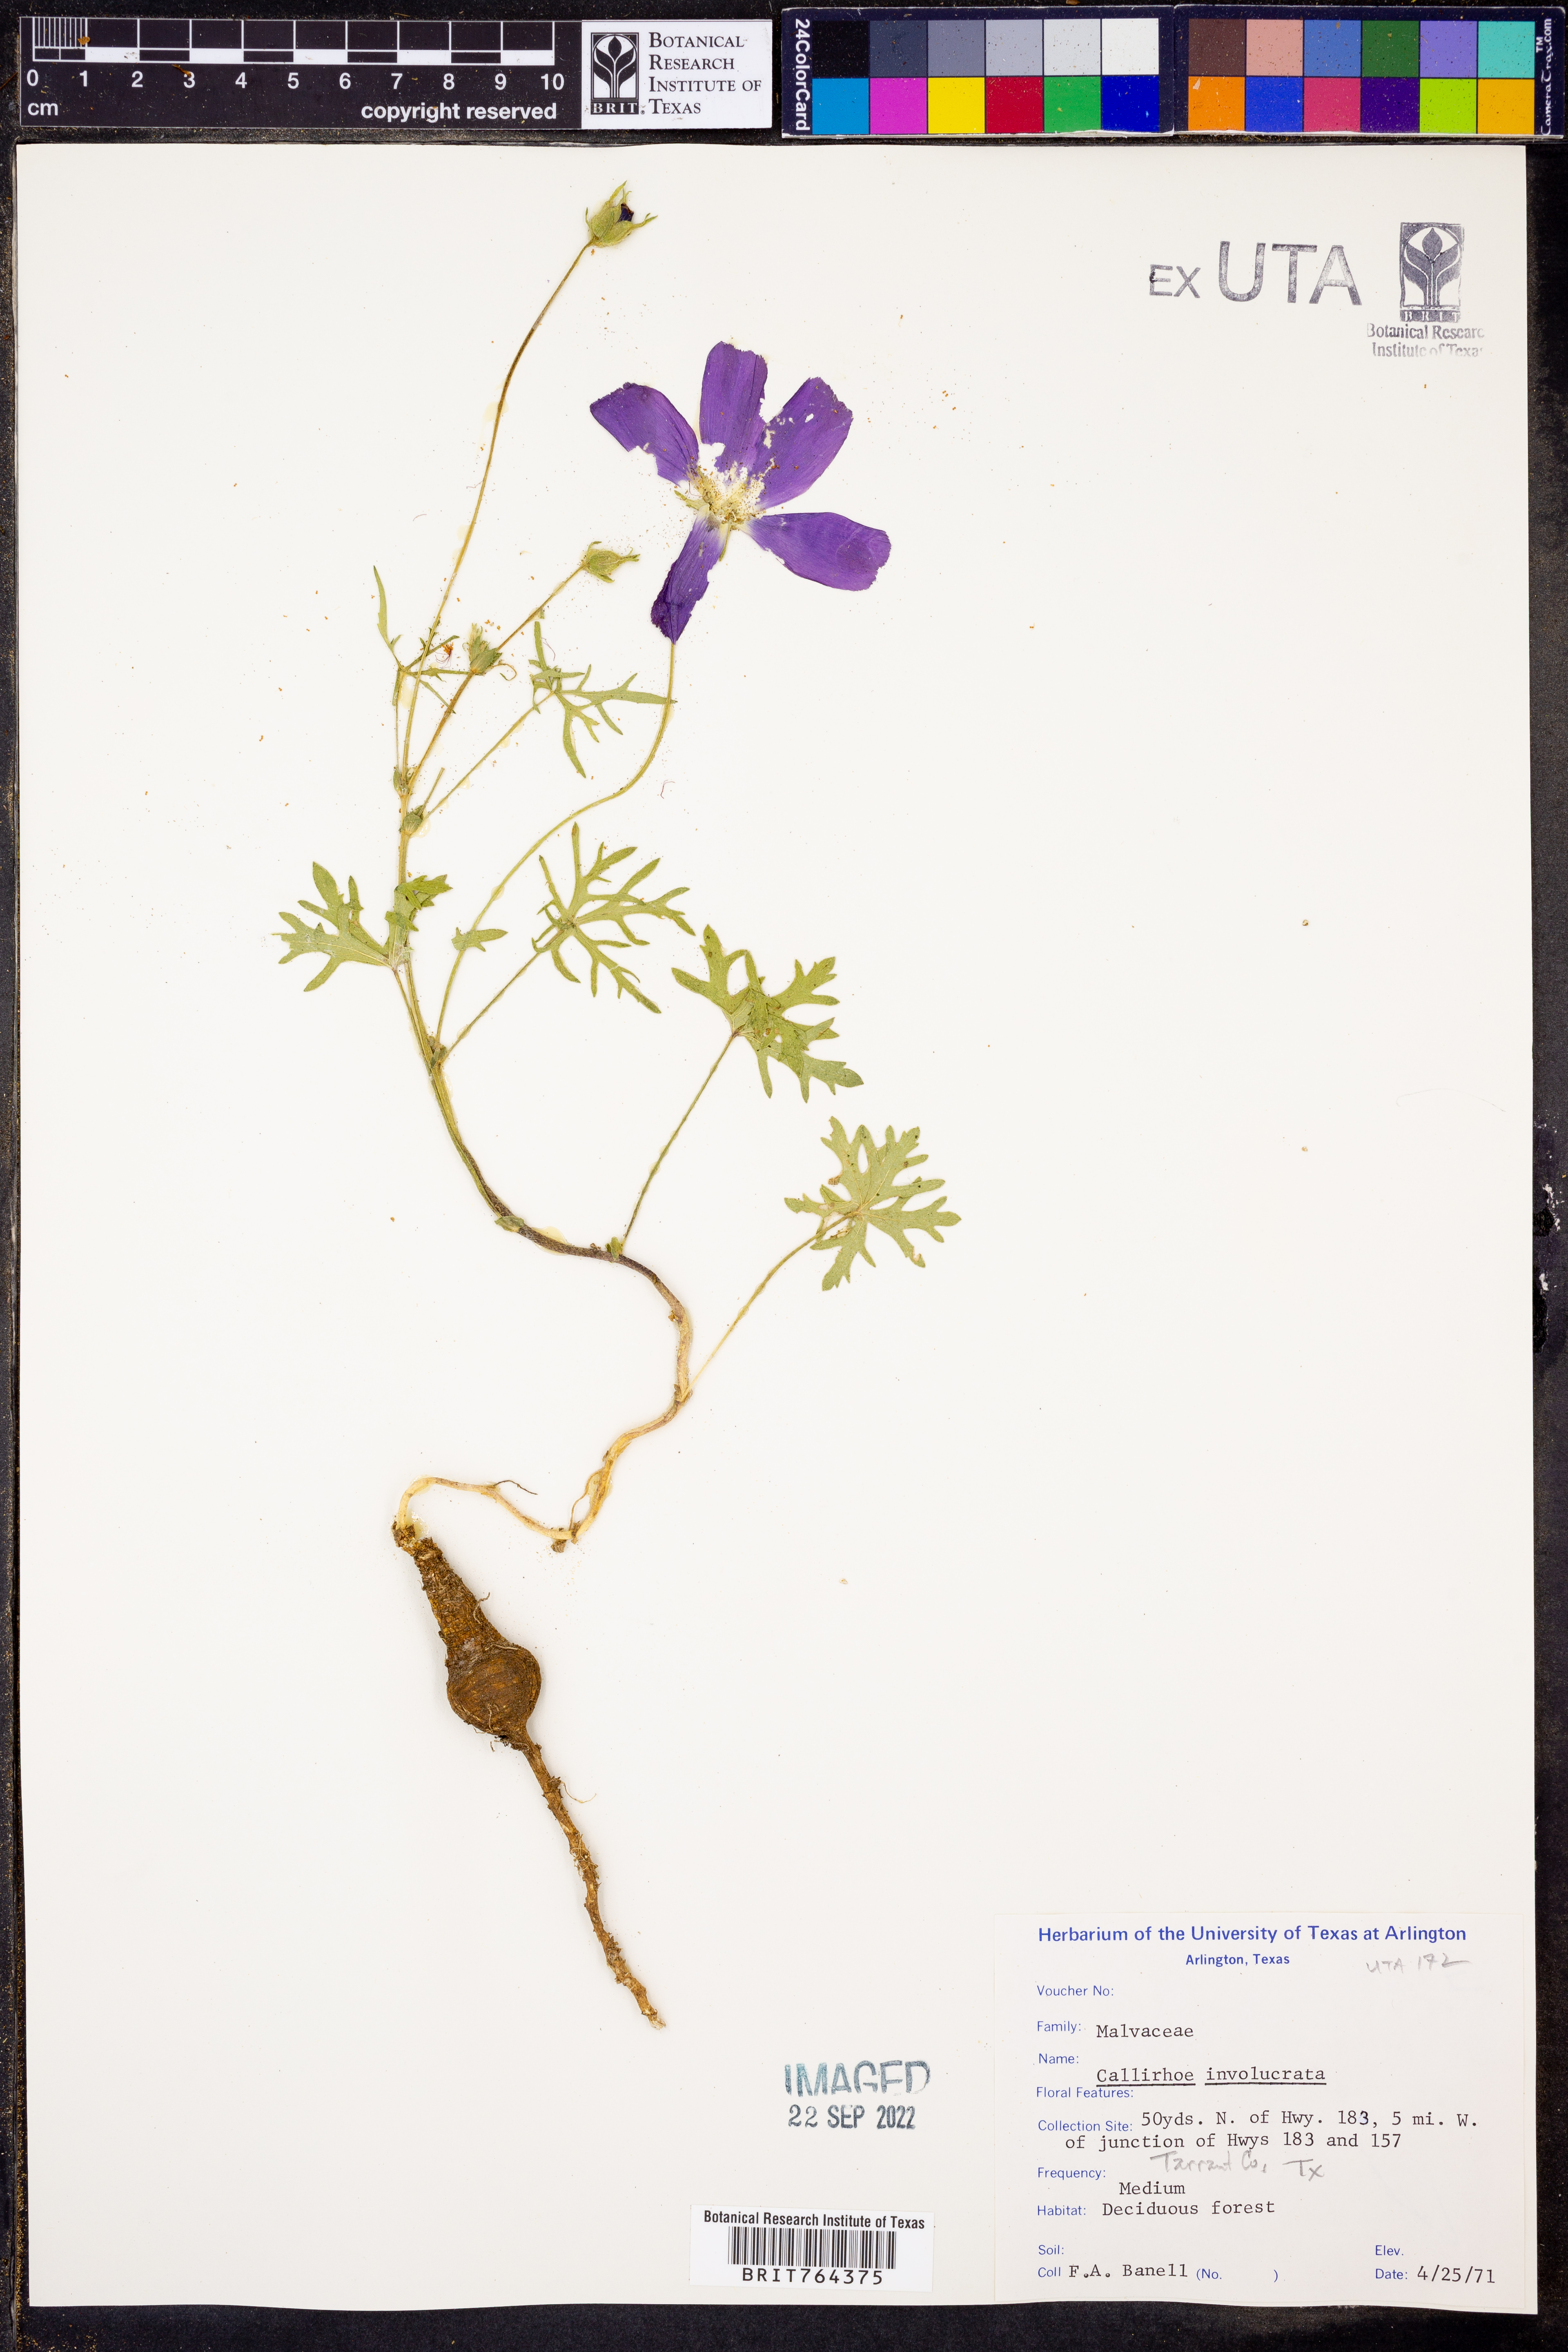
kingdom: Plantae
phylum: Tracheophyta
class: Magnoliopsida
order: Malvales
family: Malvaceae
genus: Callirhoe
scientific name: Callirhoe involucrata
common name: Purple poppy-mallow
